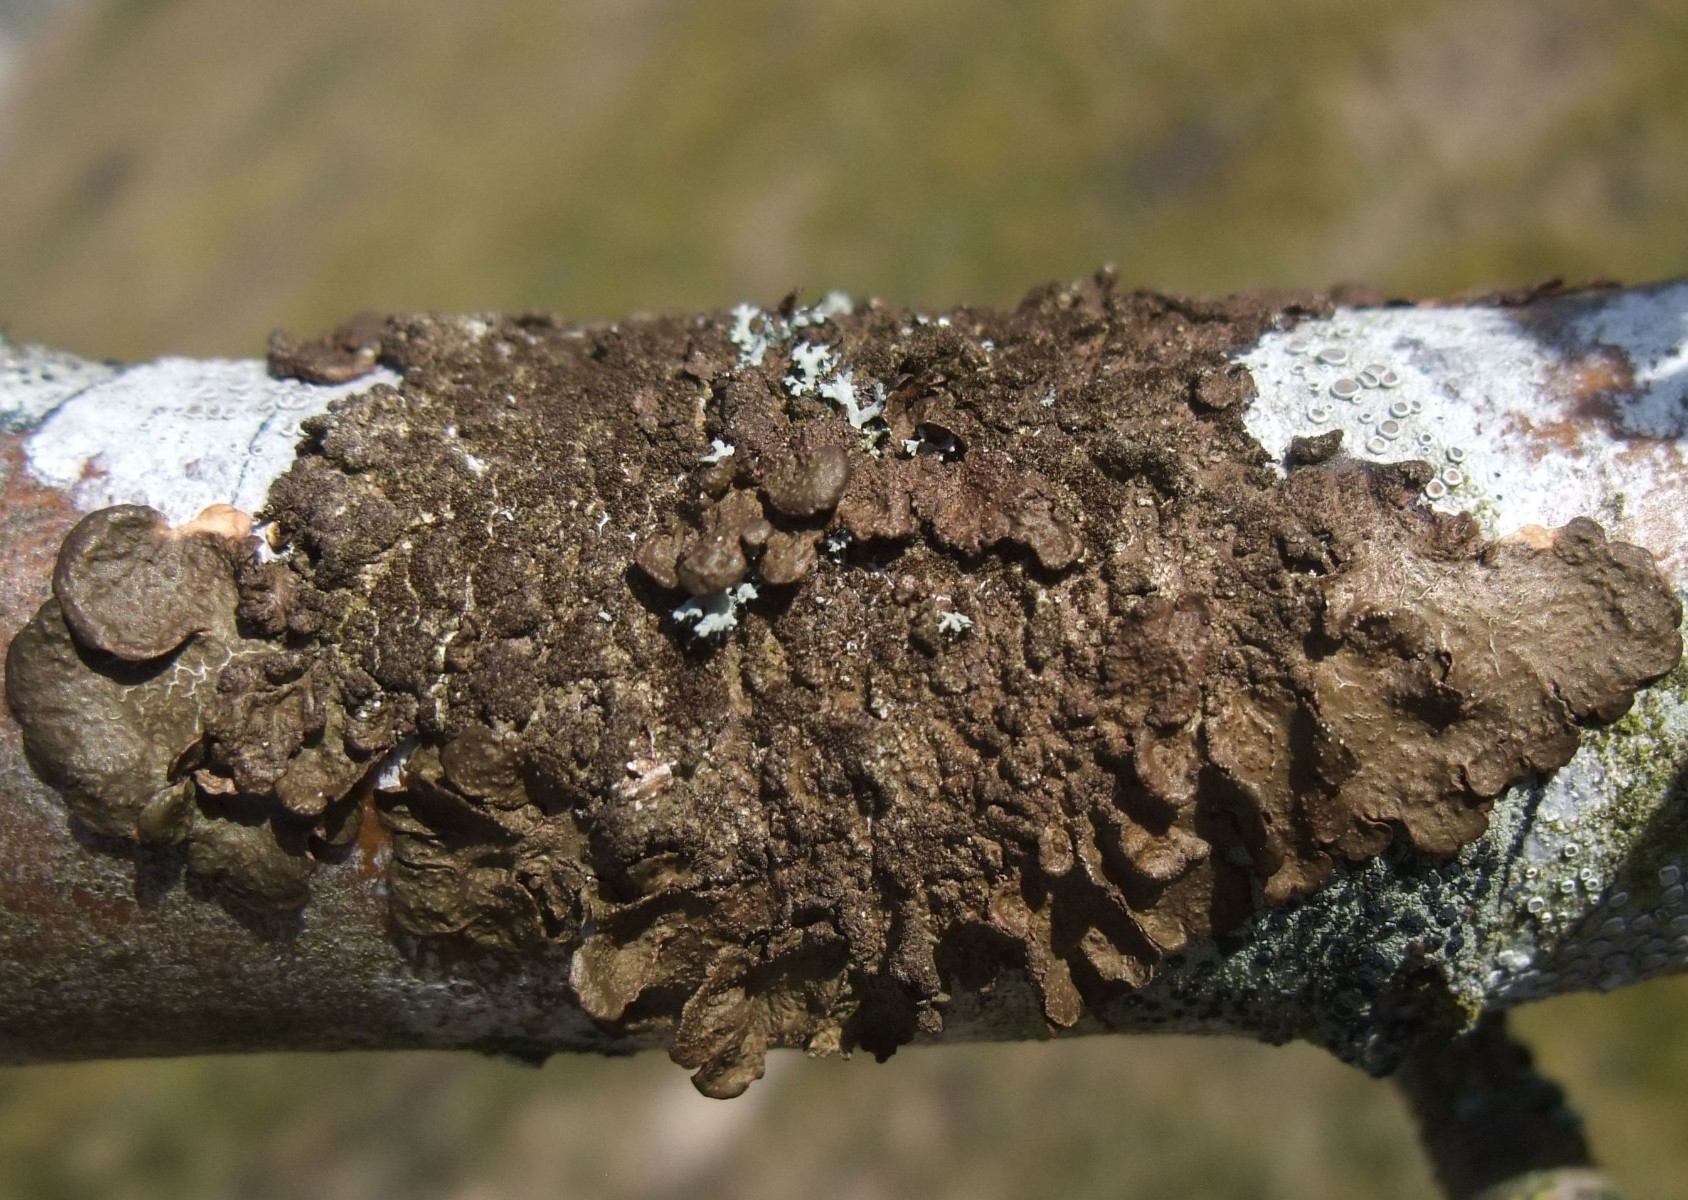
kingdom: Fungi
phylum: Ascomycota
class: Lecanoromycetes
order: Lecanorales
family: Parmeliaceae
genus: Melanelixia
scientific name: Melanelixia subaurifera
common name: guldpudret skållav
